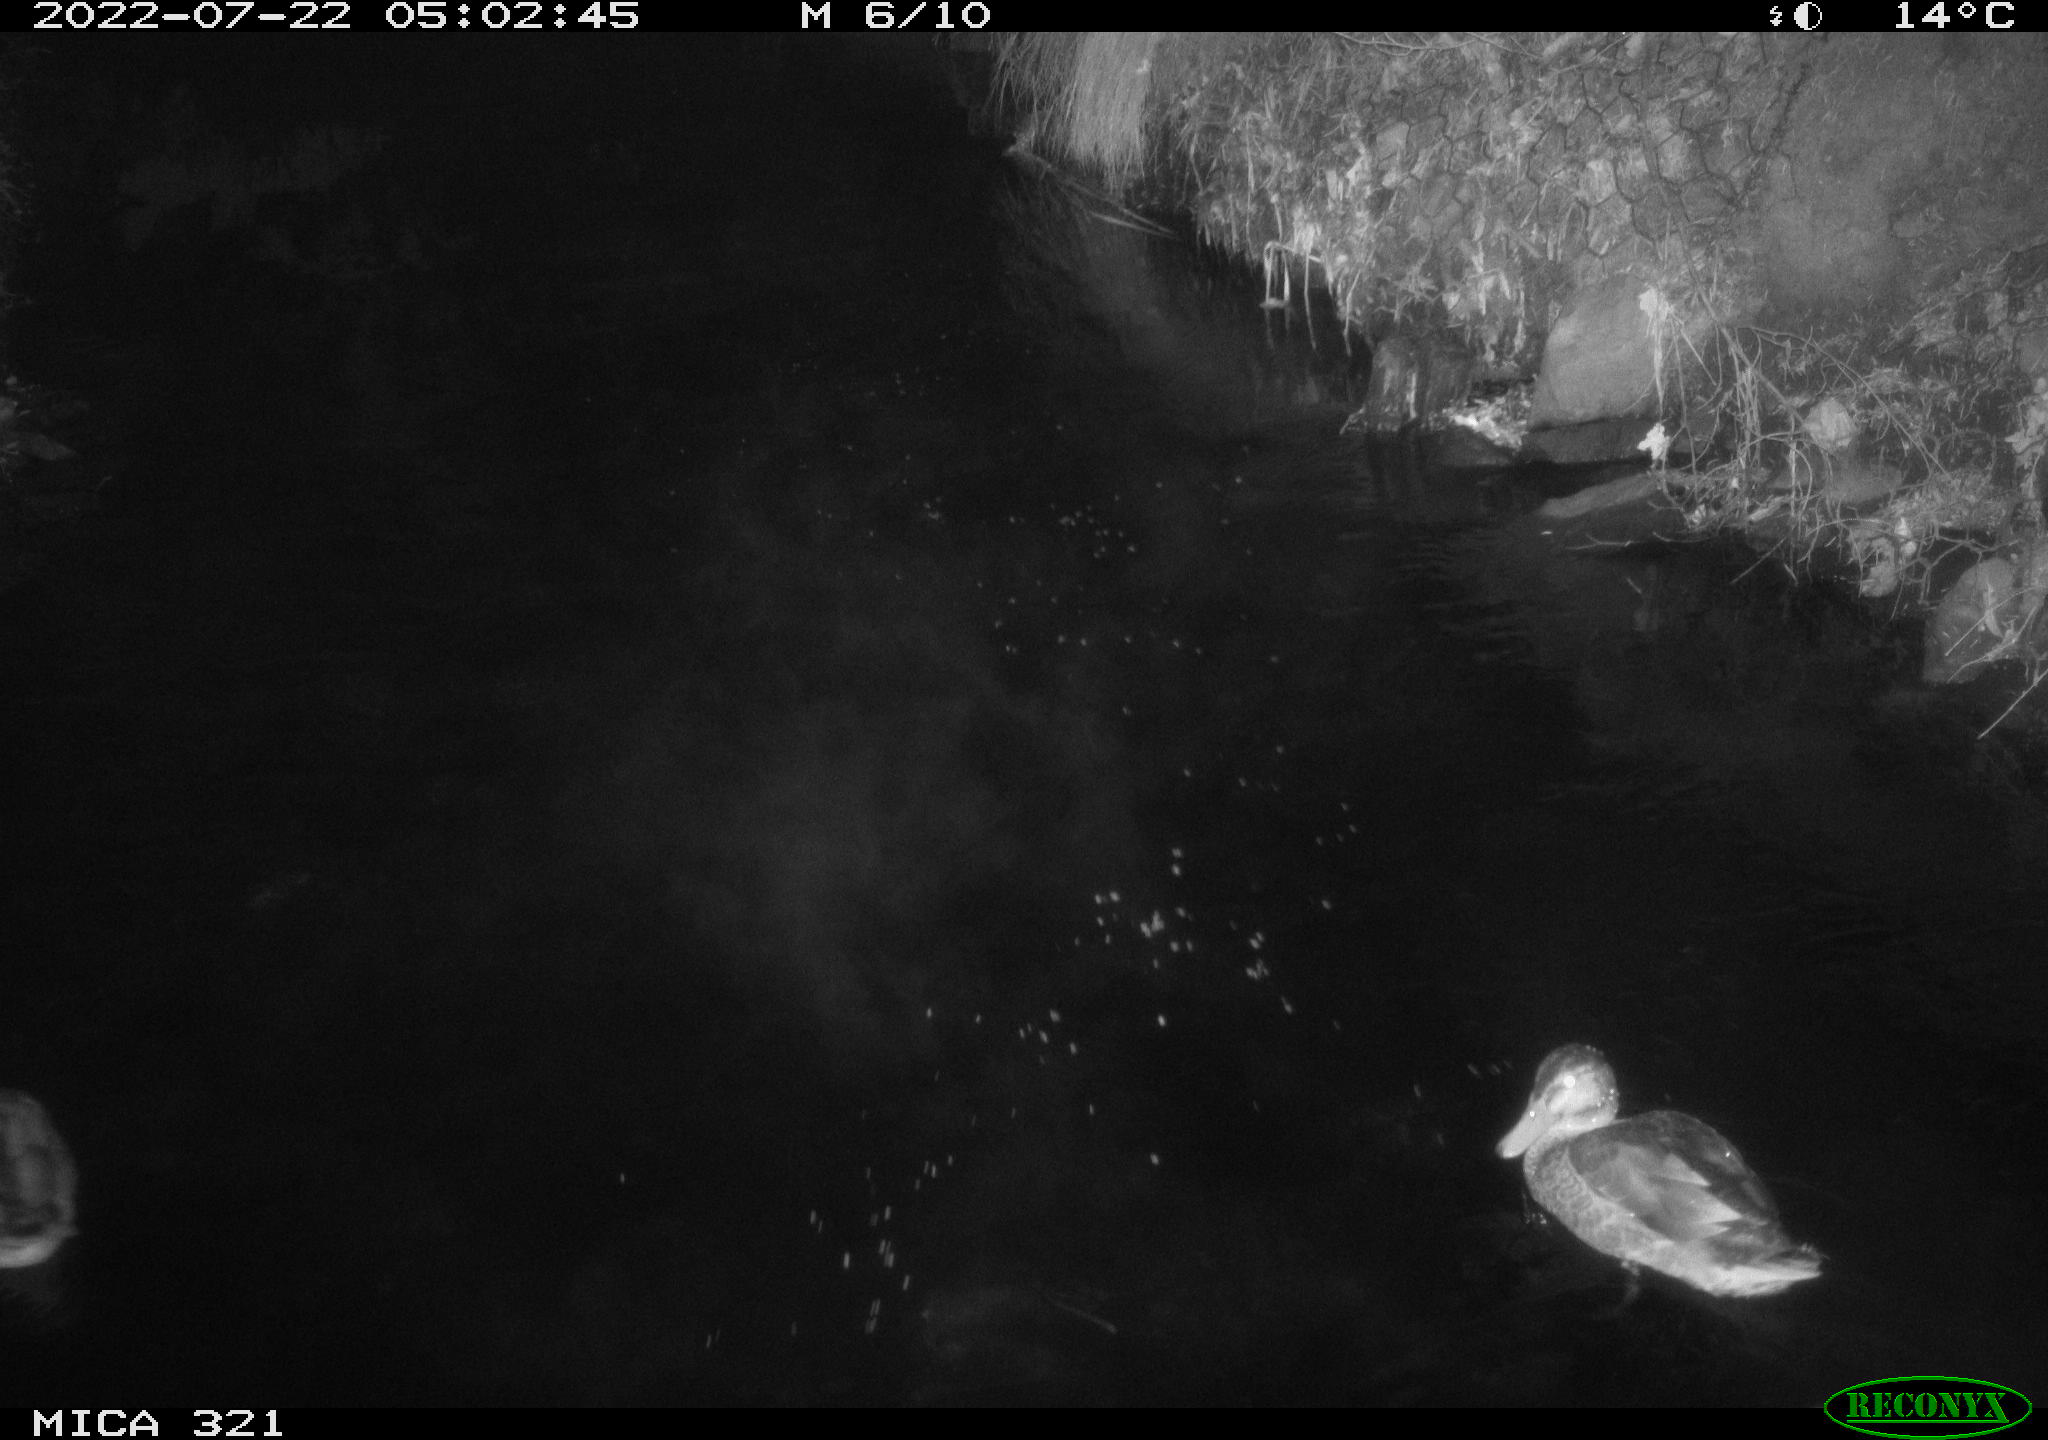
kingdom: Animalia
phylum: Chordata
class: Aves
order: Anseriformes
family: Anatidae
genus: Anas
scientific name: Anas platyrhynchos
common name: Mallard
